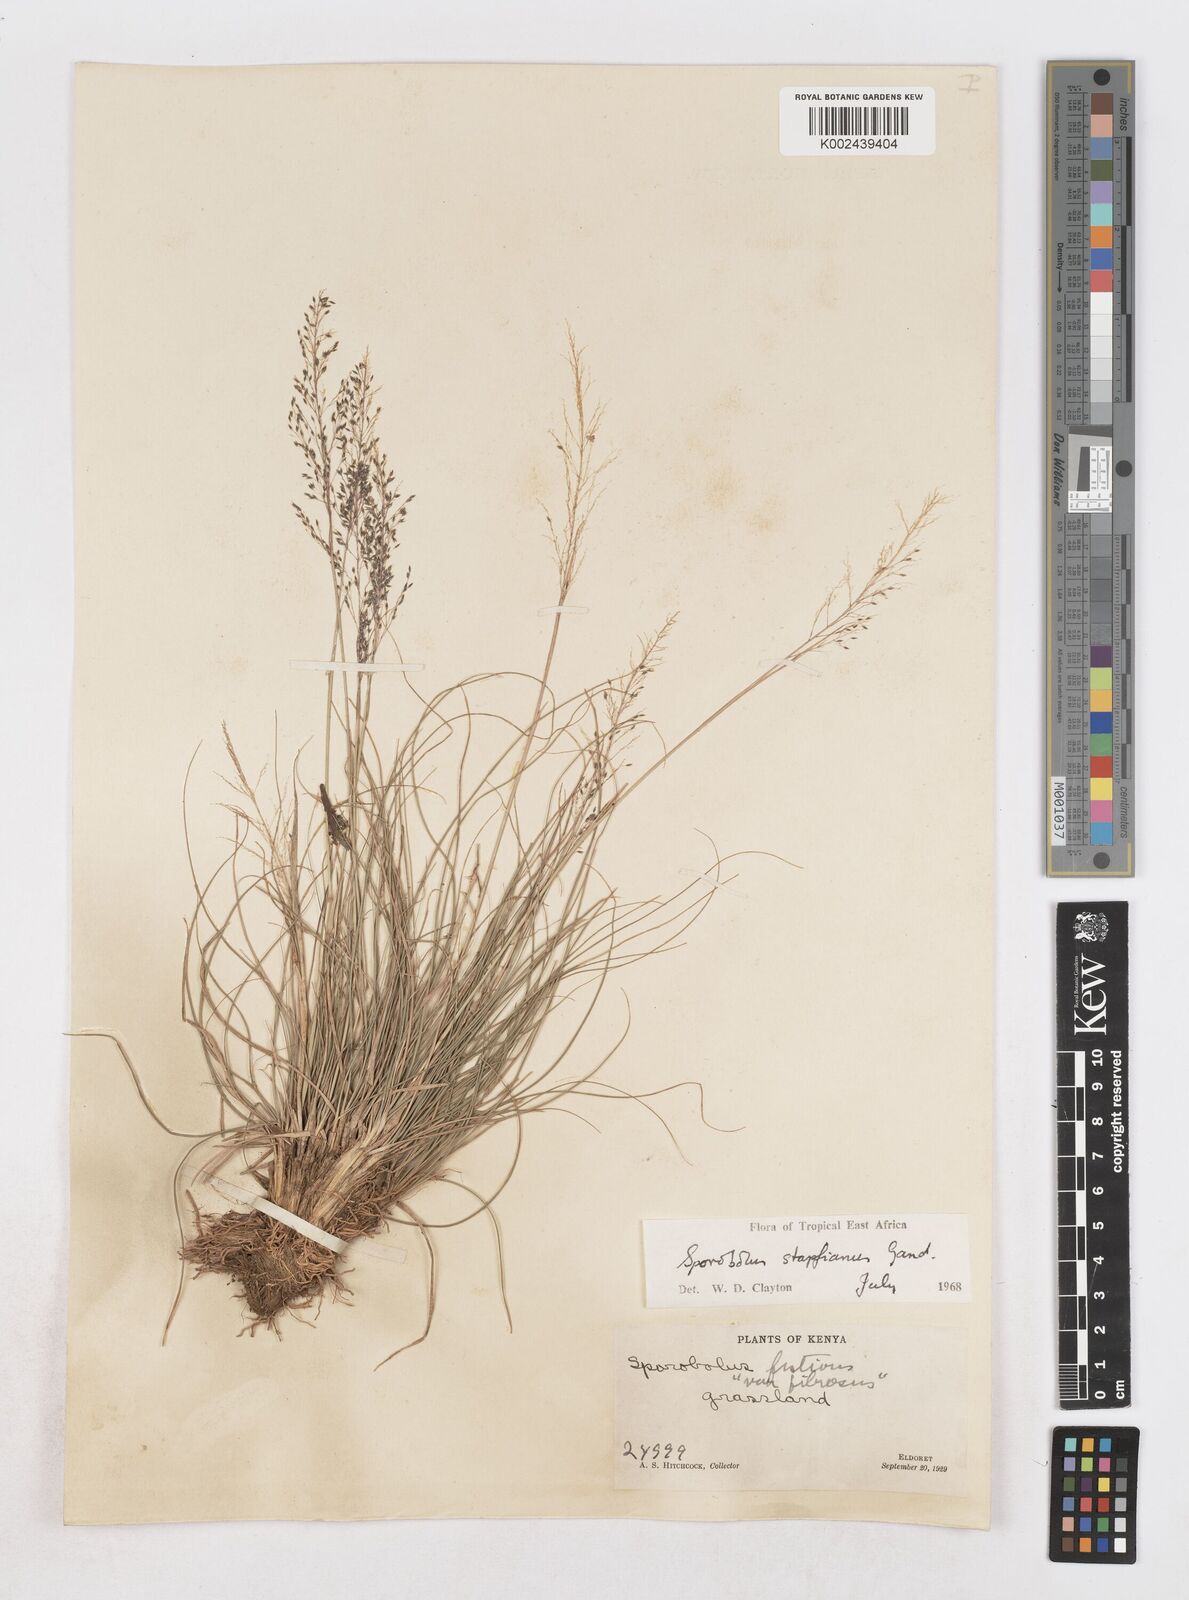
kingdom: Plantae
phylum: Tracheophyta
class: Liliopsida
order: Poales
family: Poaceae
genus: Sporobolus
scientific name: Sporobolus stapfianus
